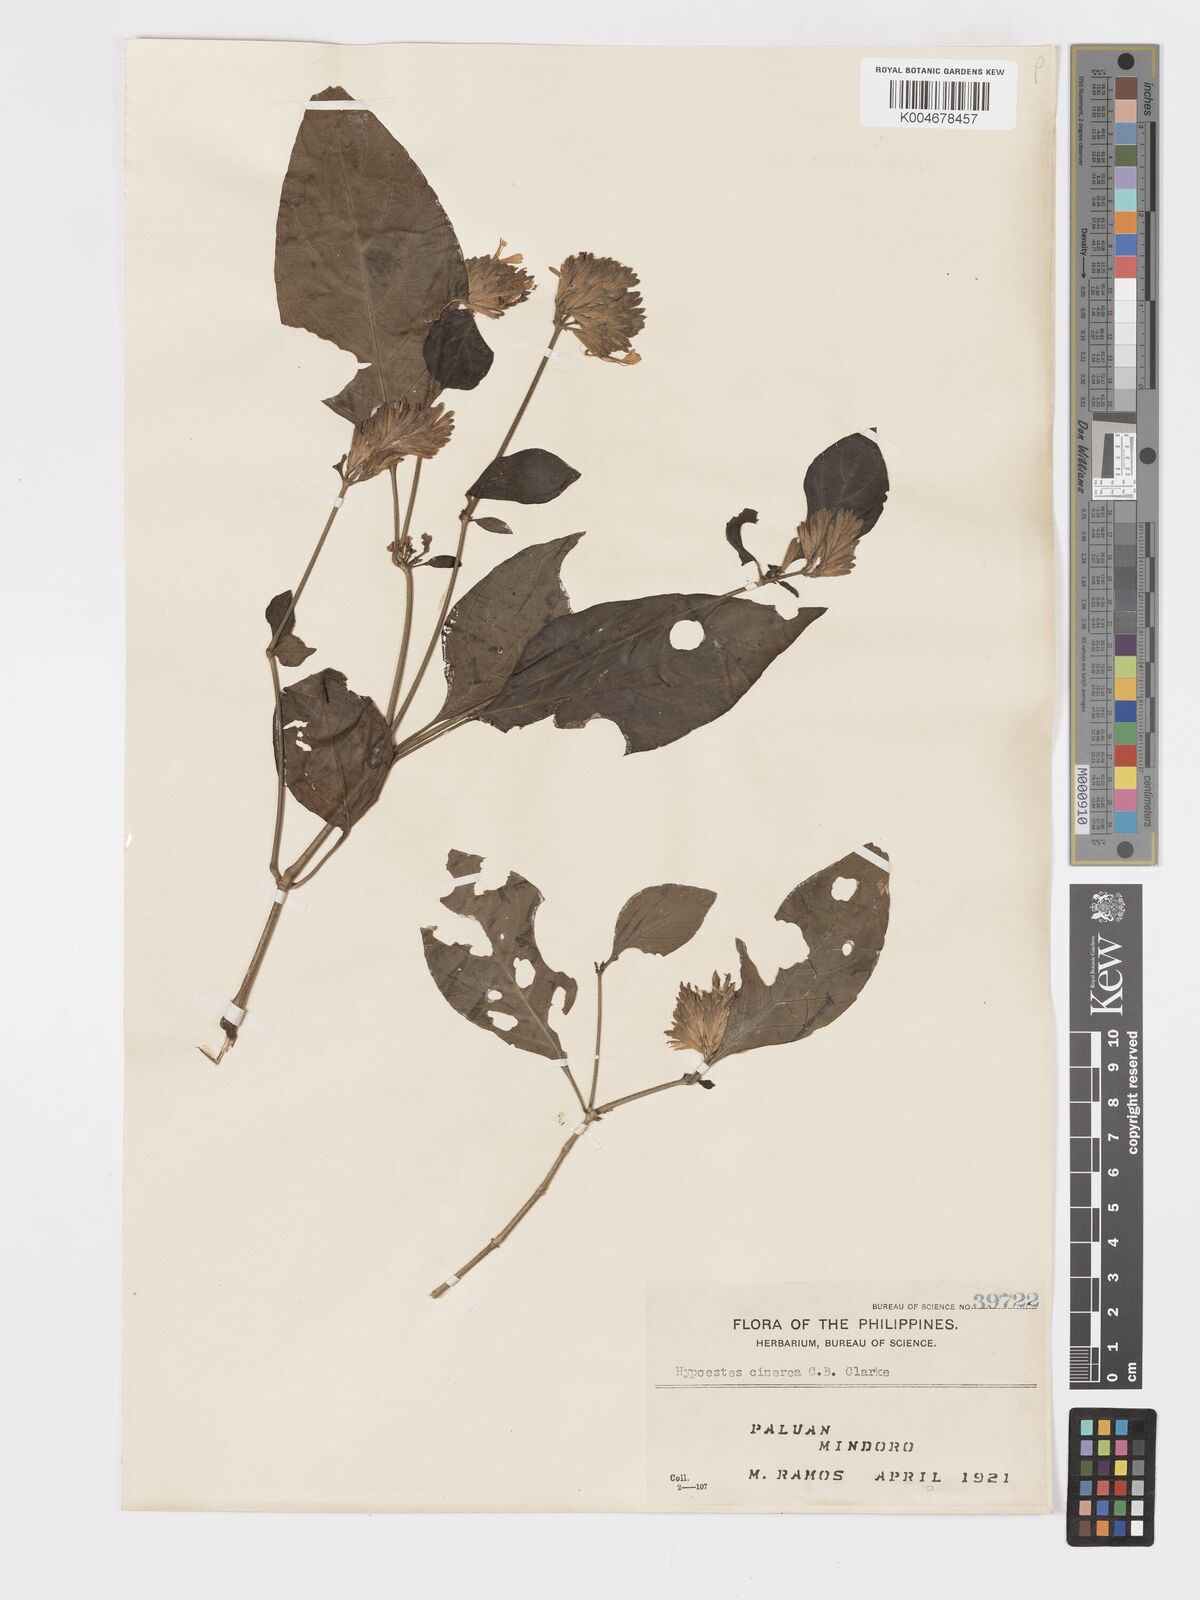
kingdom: Plantae
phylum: Tracheophyta
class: Magnoliopsida
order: Lamiales
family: Acanthaceae
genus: Hypoestes
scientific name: Hypoestes
